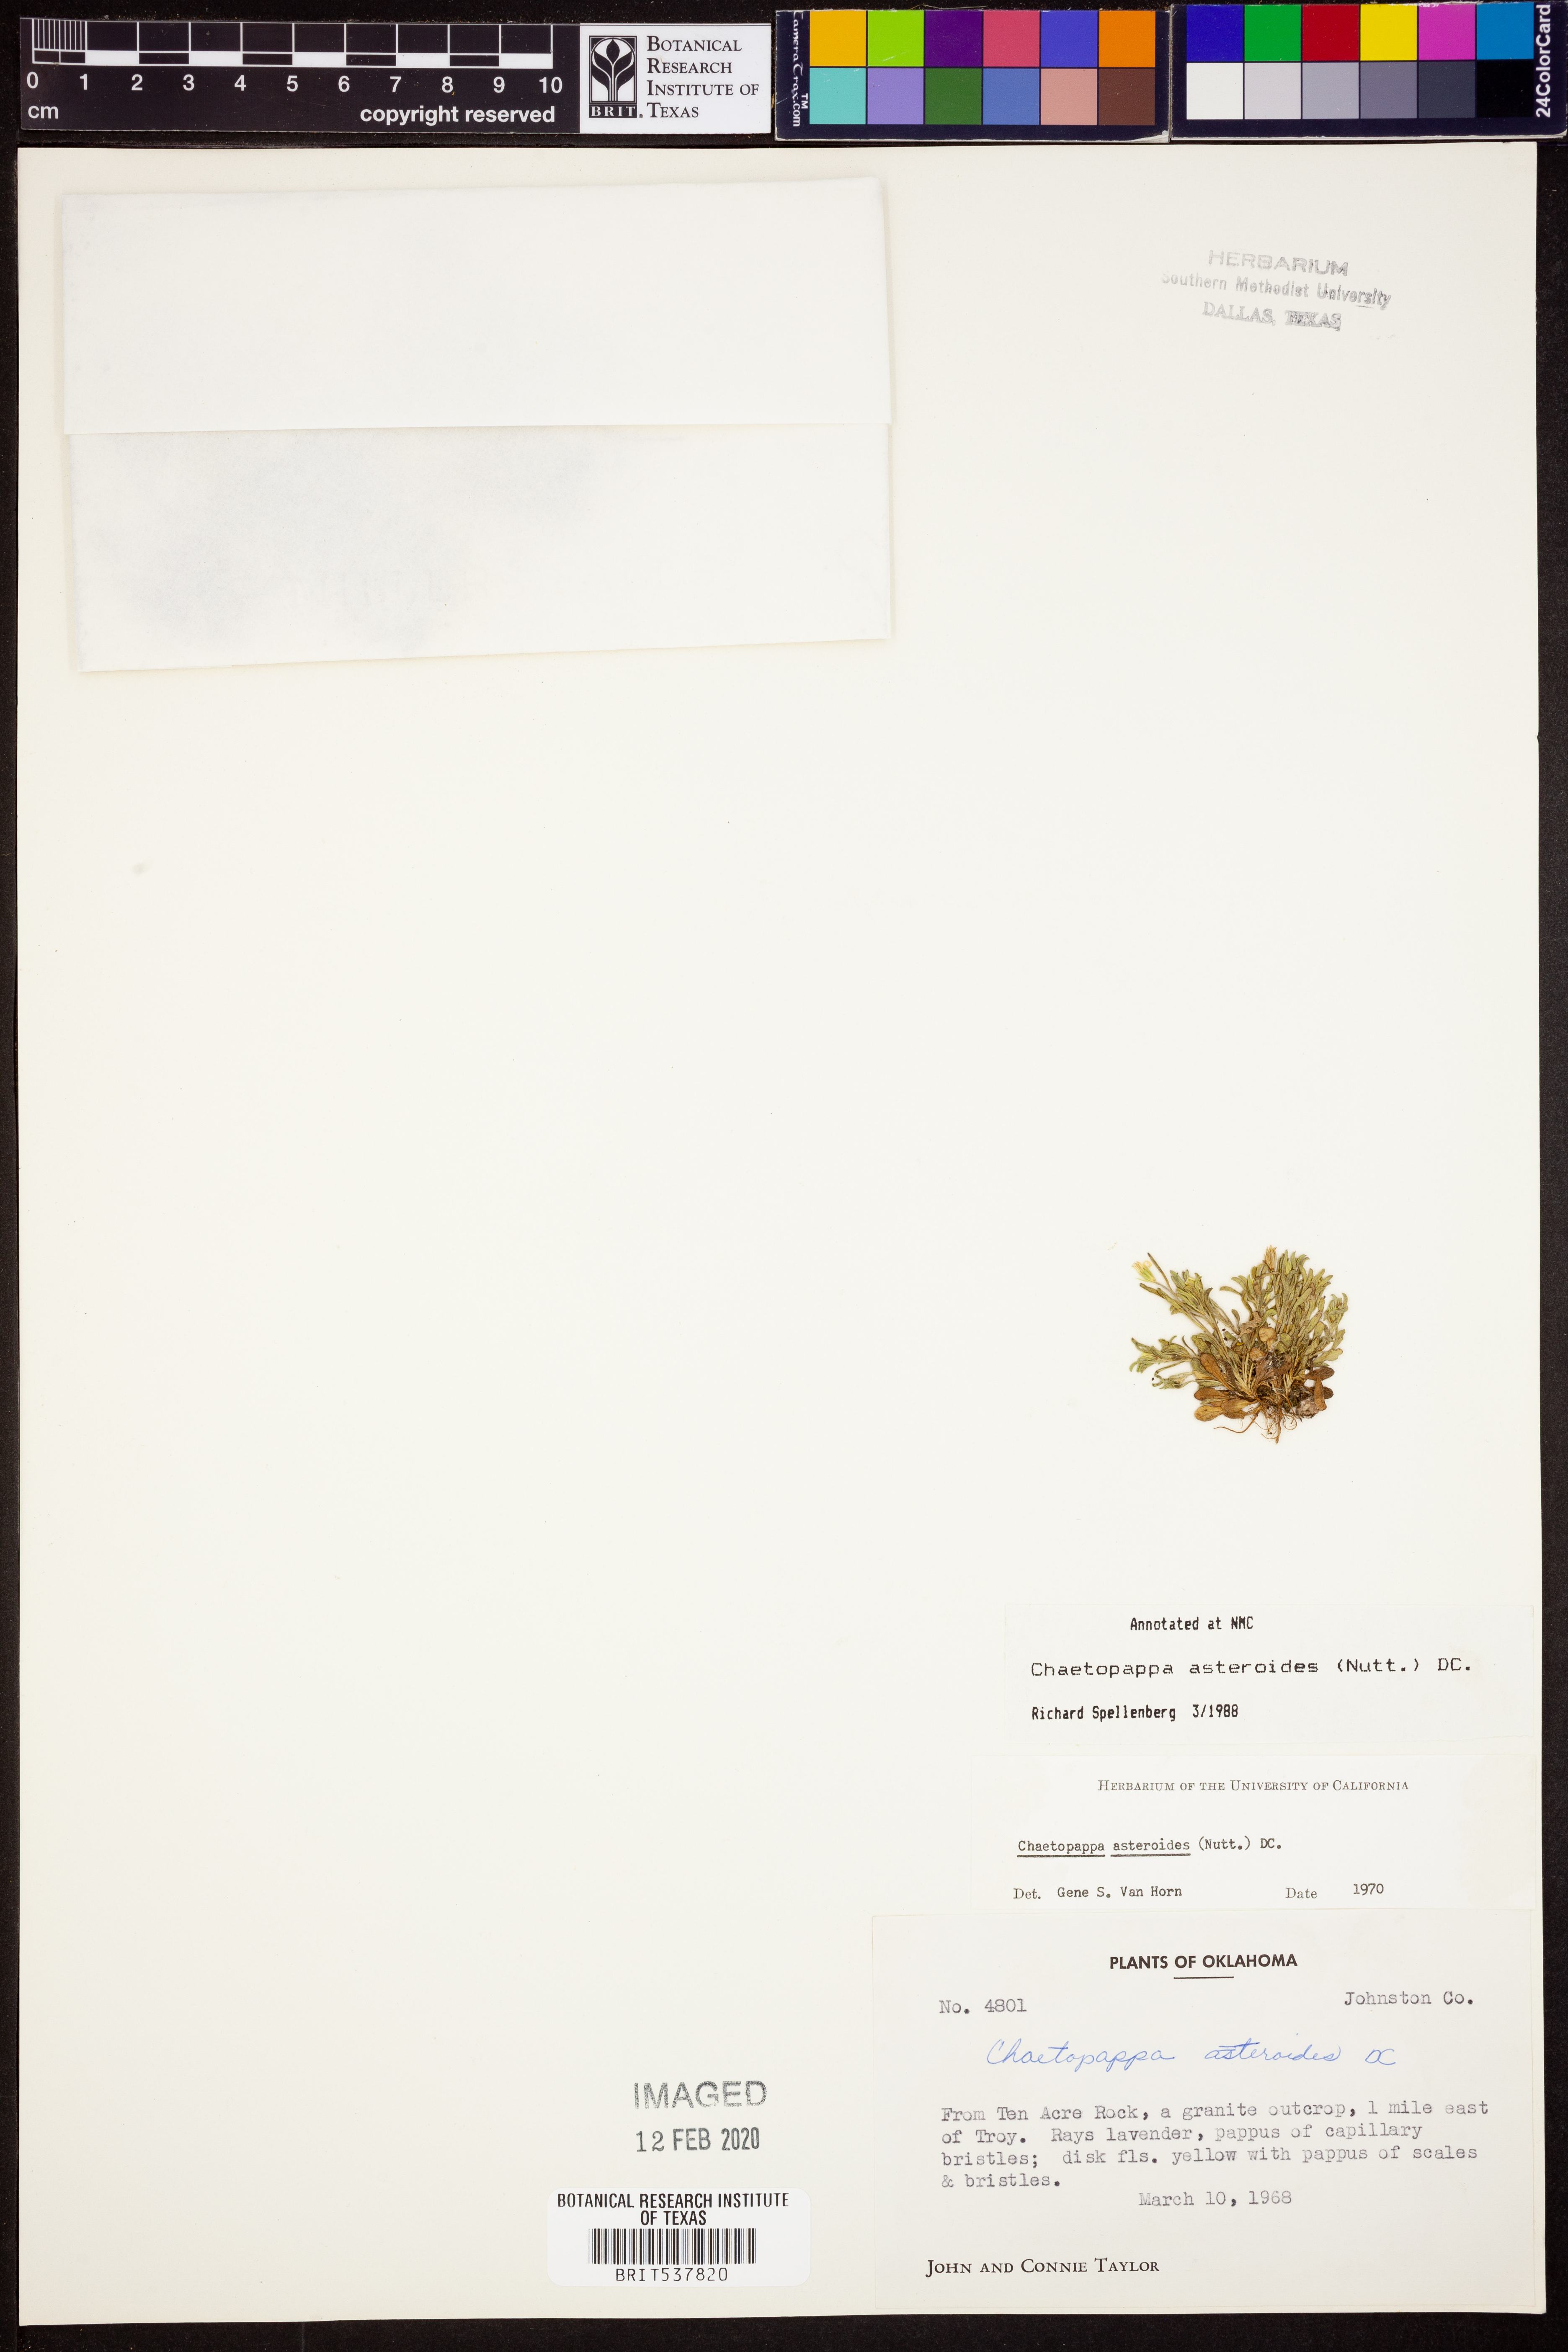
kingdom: Plantae
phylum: Tracheophyta
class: Magnoliopsida
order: Asterales
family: Asteraceae
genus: Chaetopappa
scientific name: Chaetopappa asteroides
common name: Tiny lazy daisy
